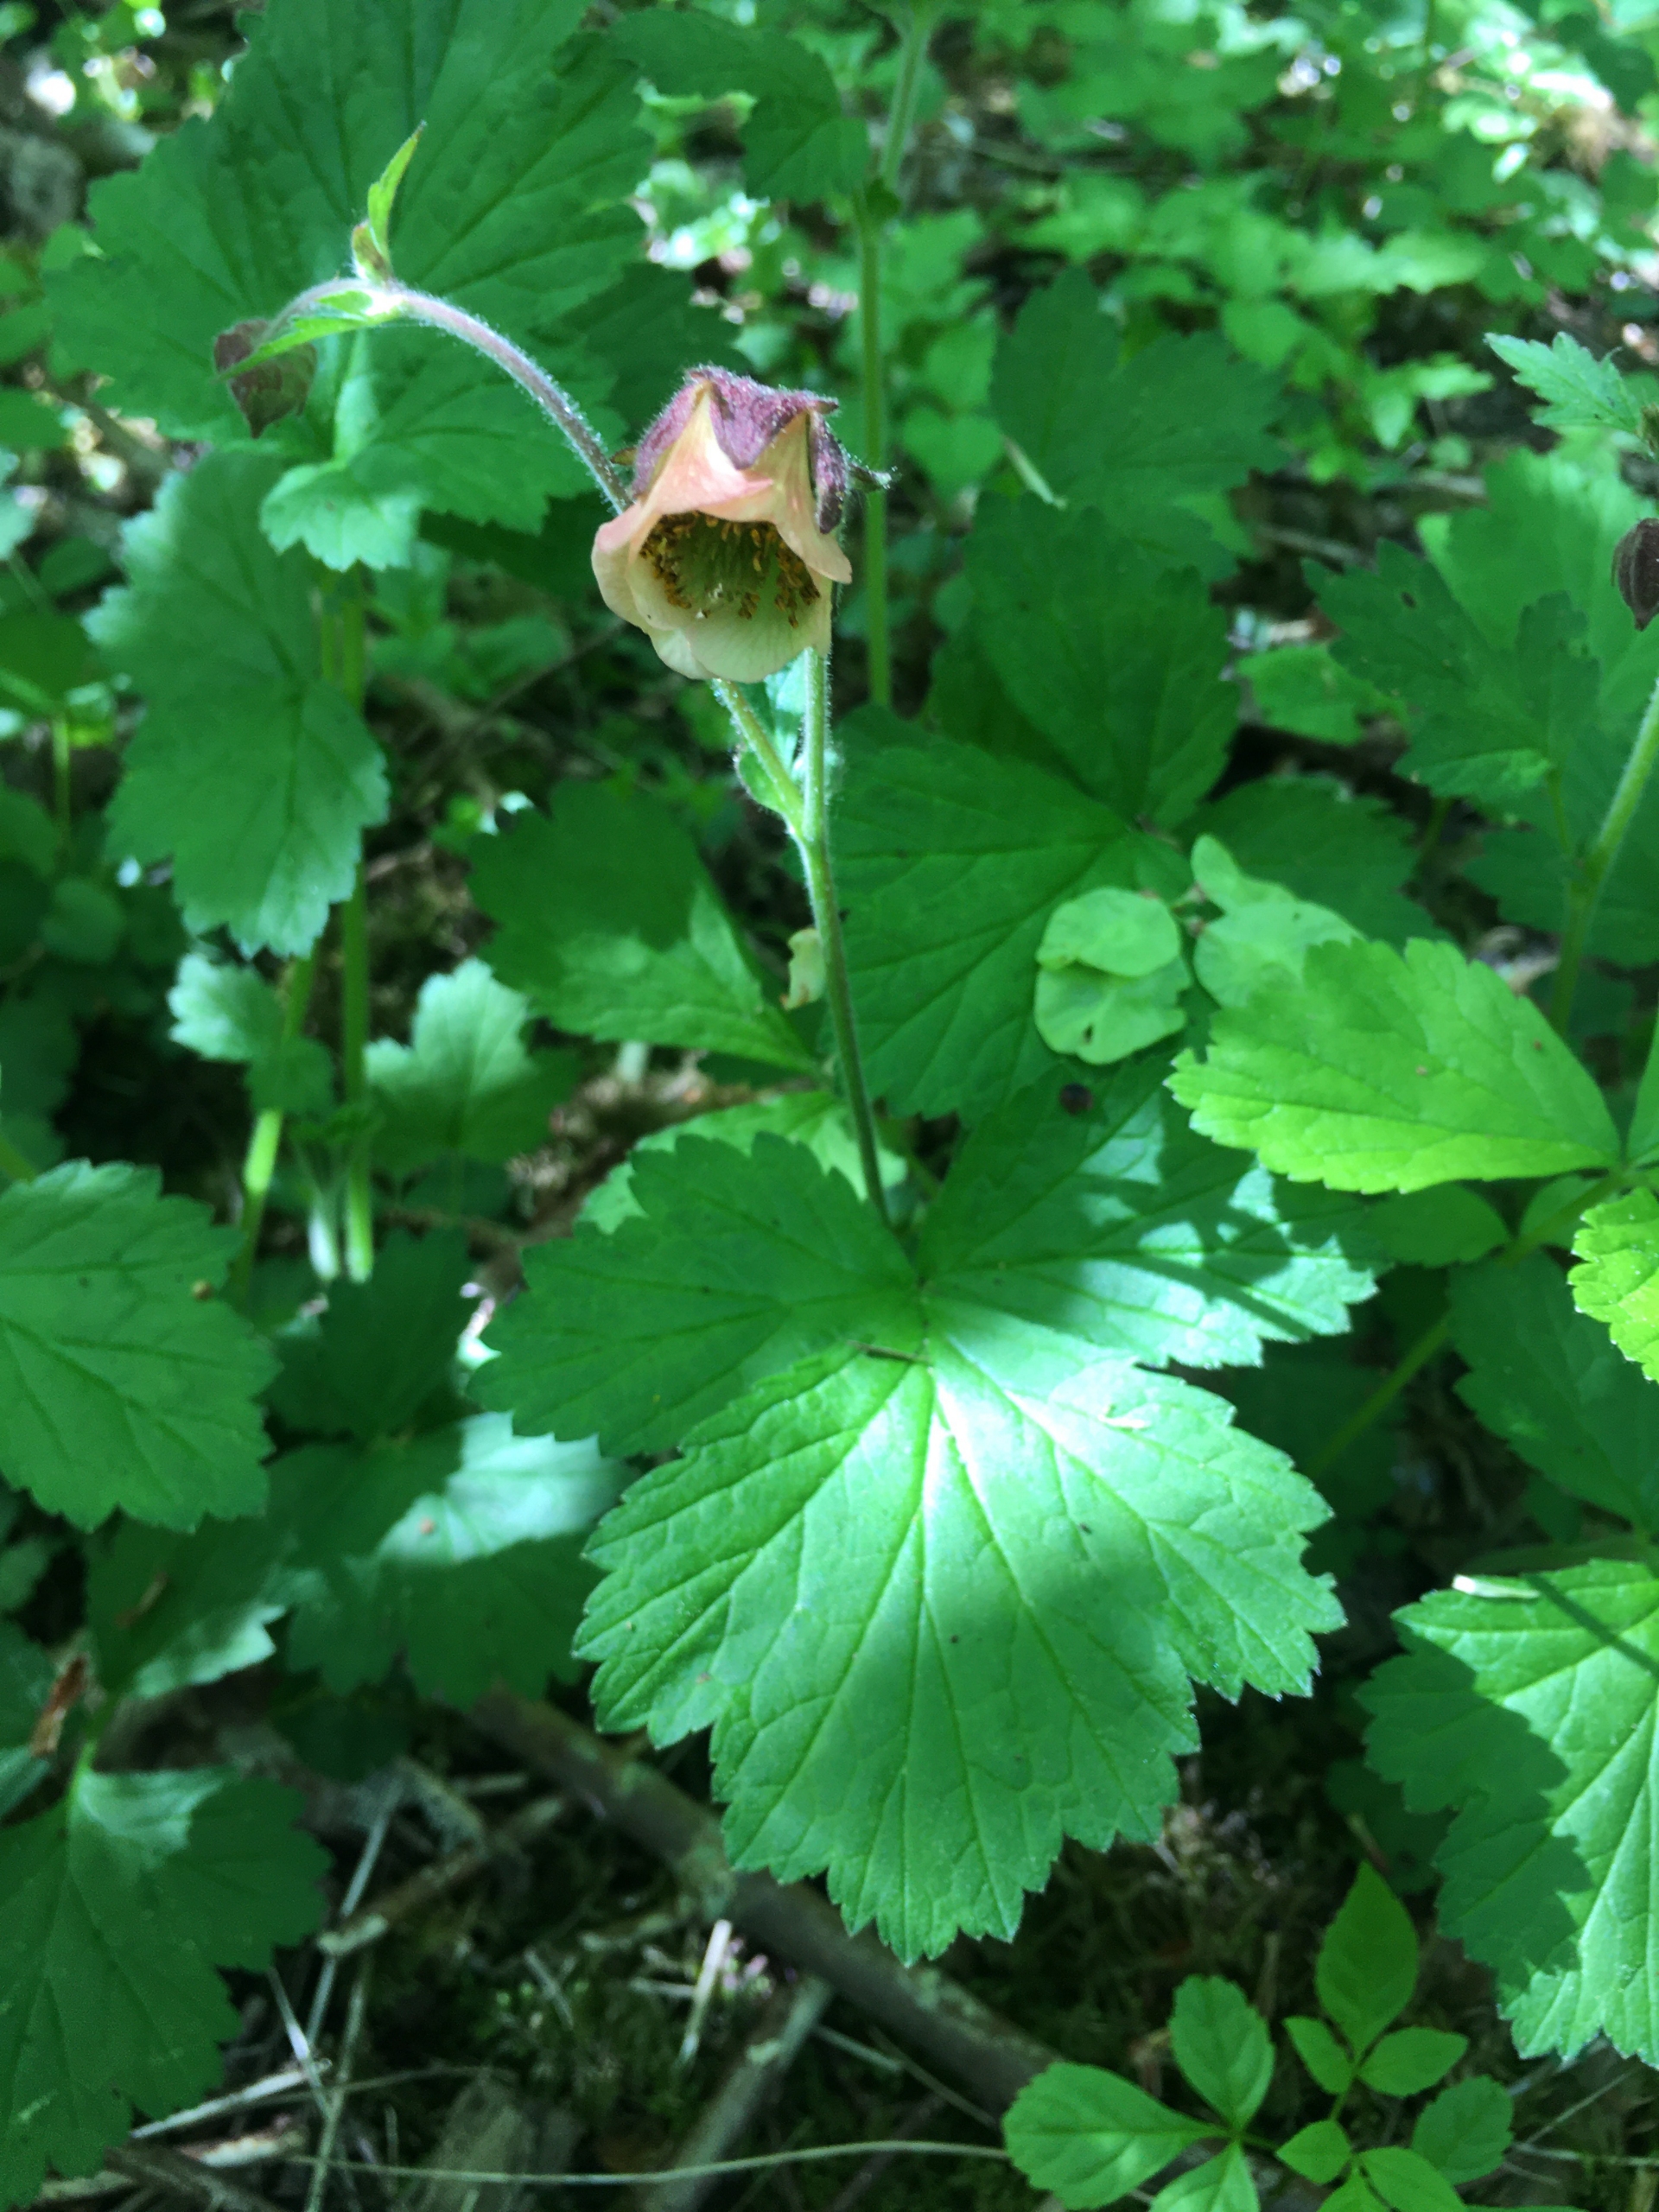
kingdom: Plantae
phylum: Tracheophyta
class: Magnoliopsida
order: Rosales
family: Rosaceae
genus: Geum
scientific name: Geum rivale
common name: Eng-nellikerod
